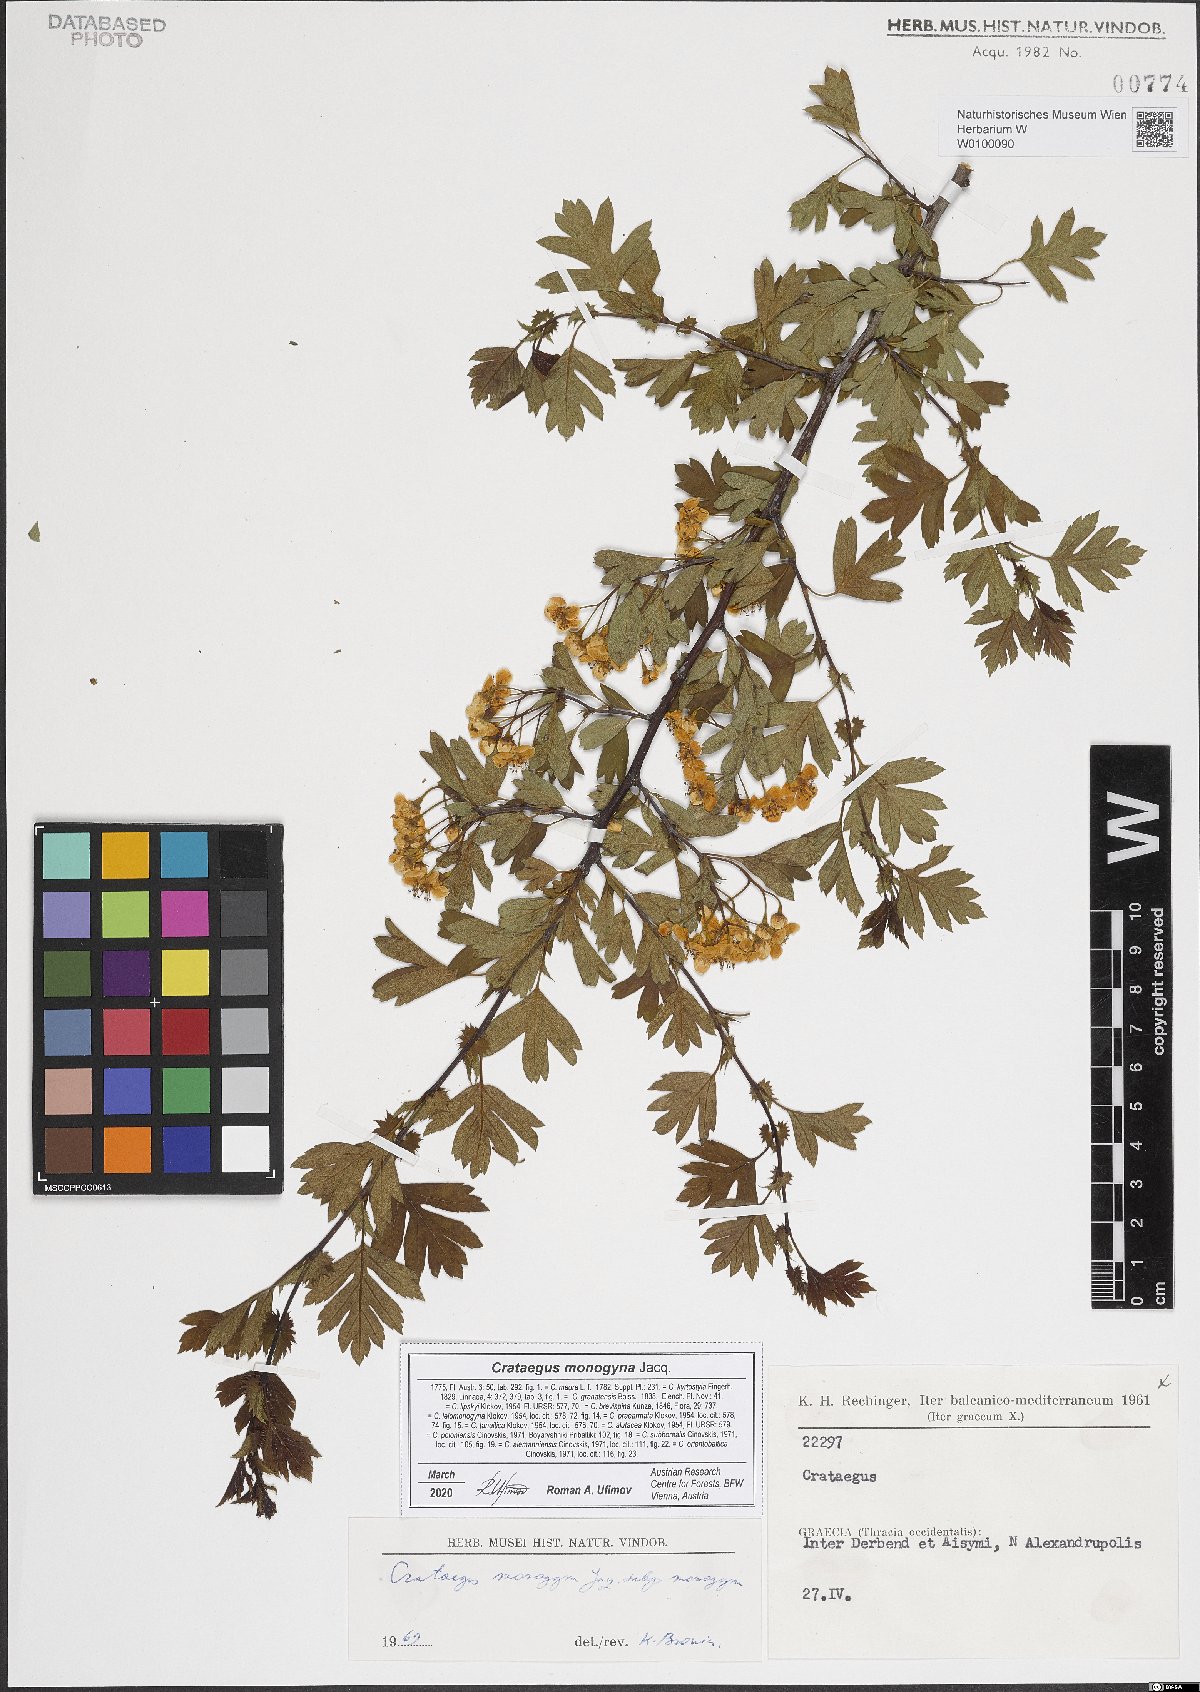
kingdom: Plantae
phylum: Tracheophyta
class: Magnoliopsida
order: Rosales
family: Rosaceae
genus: Crataegus
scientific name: Crataegus monogyna
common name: Hawthorn
